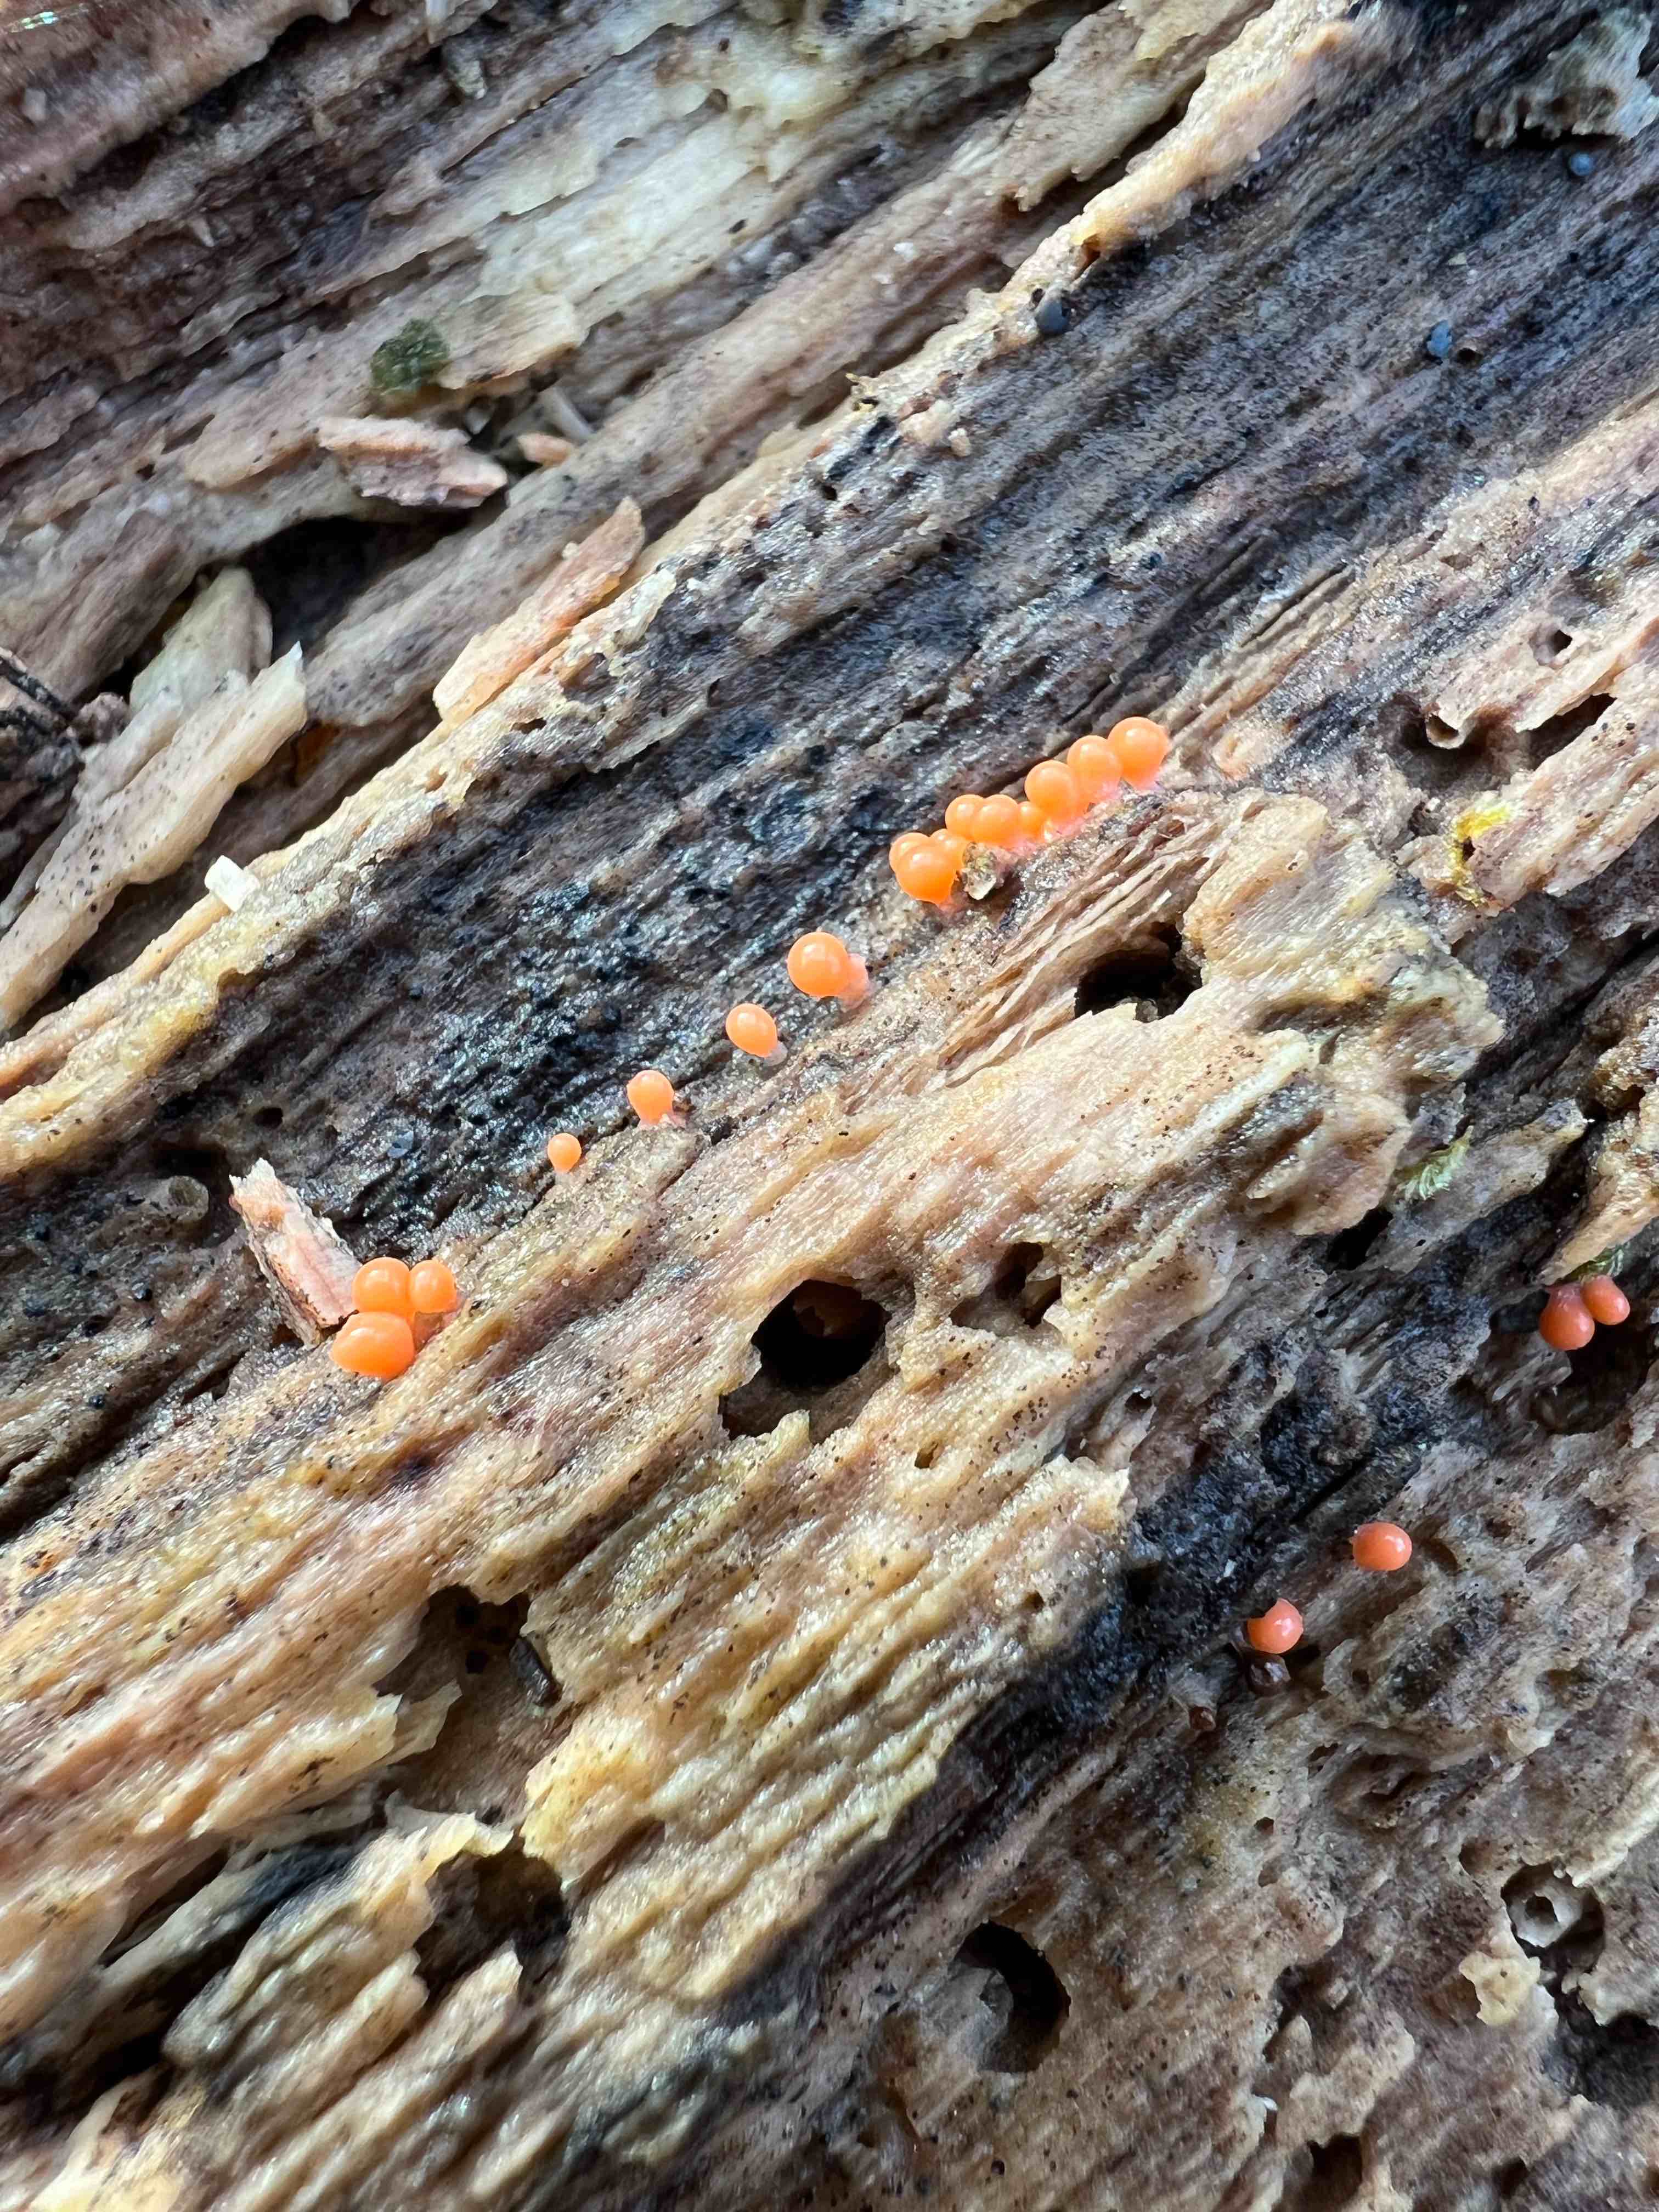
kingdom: Protozoa
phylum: Mycetozoa
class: Myxomycetes
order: Trichiales
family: Trichiaceae
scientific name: Trichiaceae
